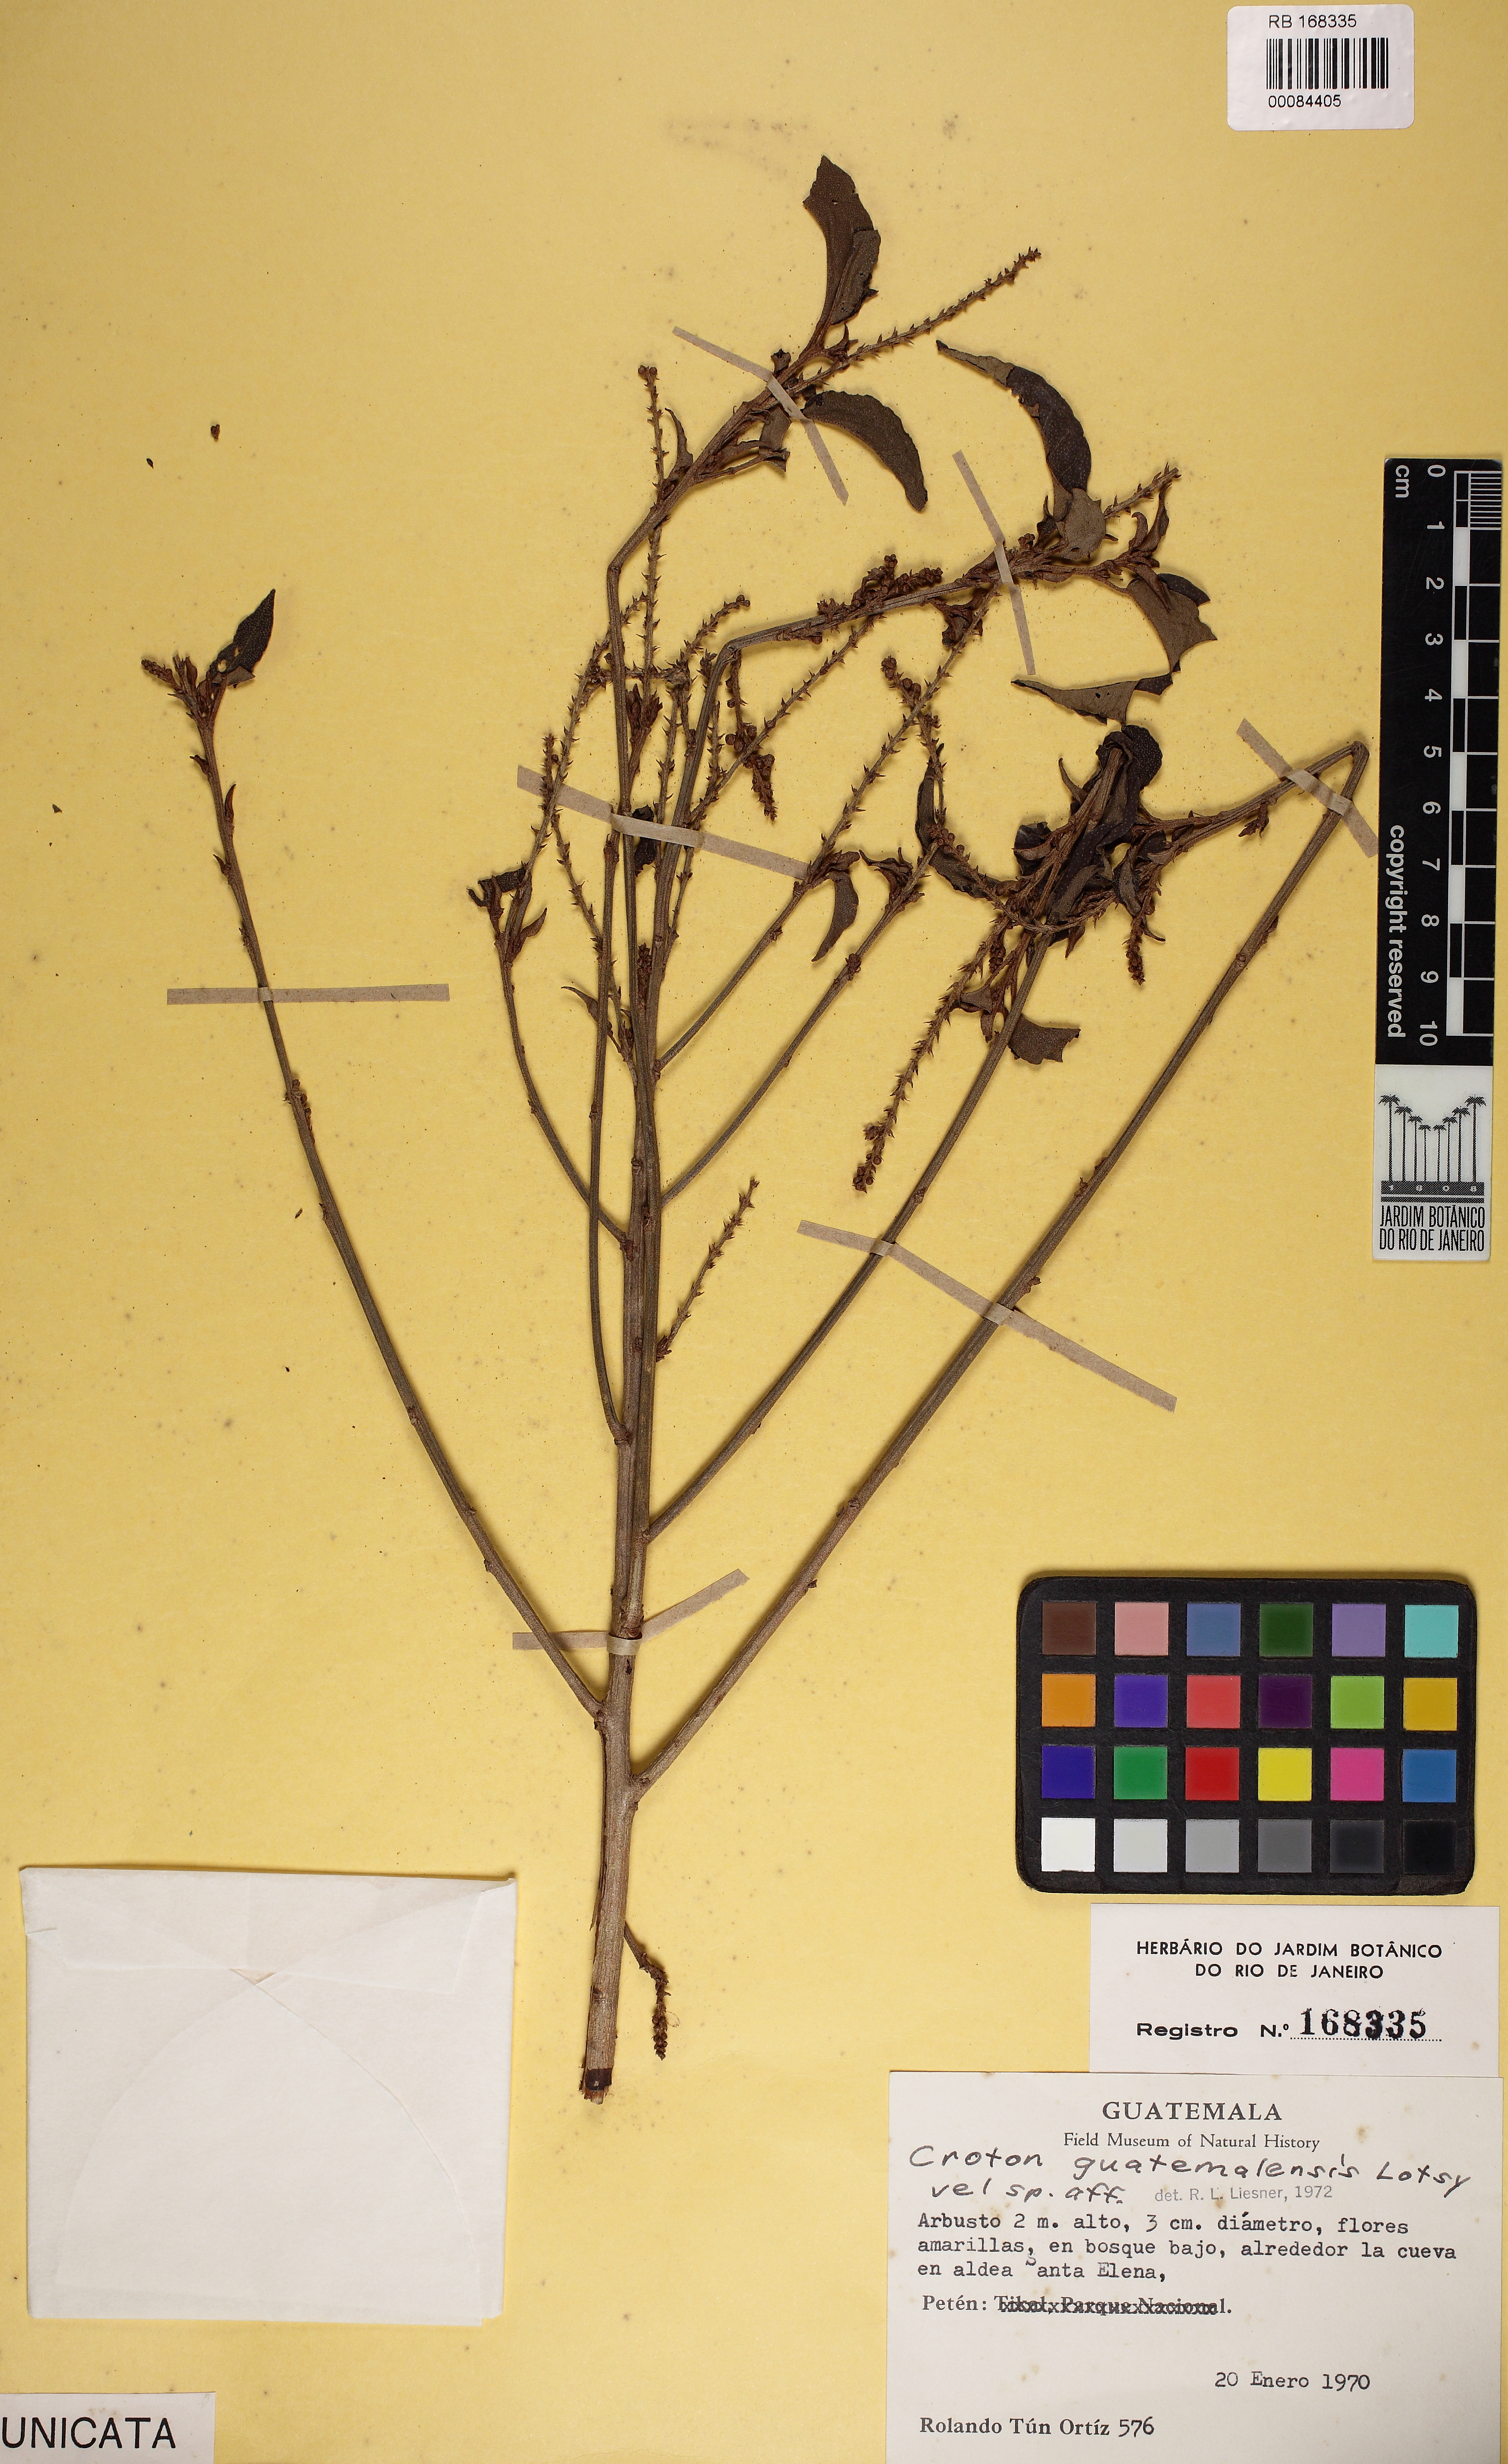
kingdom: Plantae
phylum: Tracheophyta
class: Magnoliopsida
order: Malpighiales
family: Euphorbiaceae
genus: Croton
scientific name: Croton guatemalensis
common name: Copalchi
